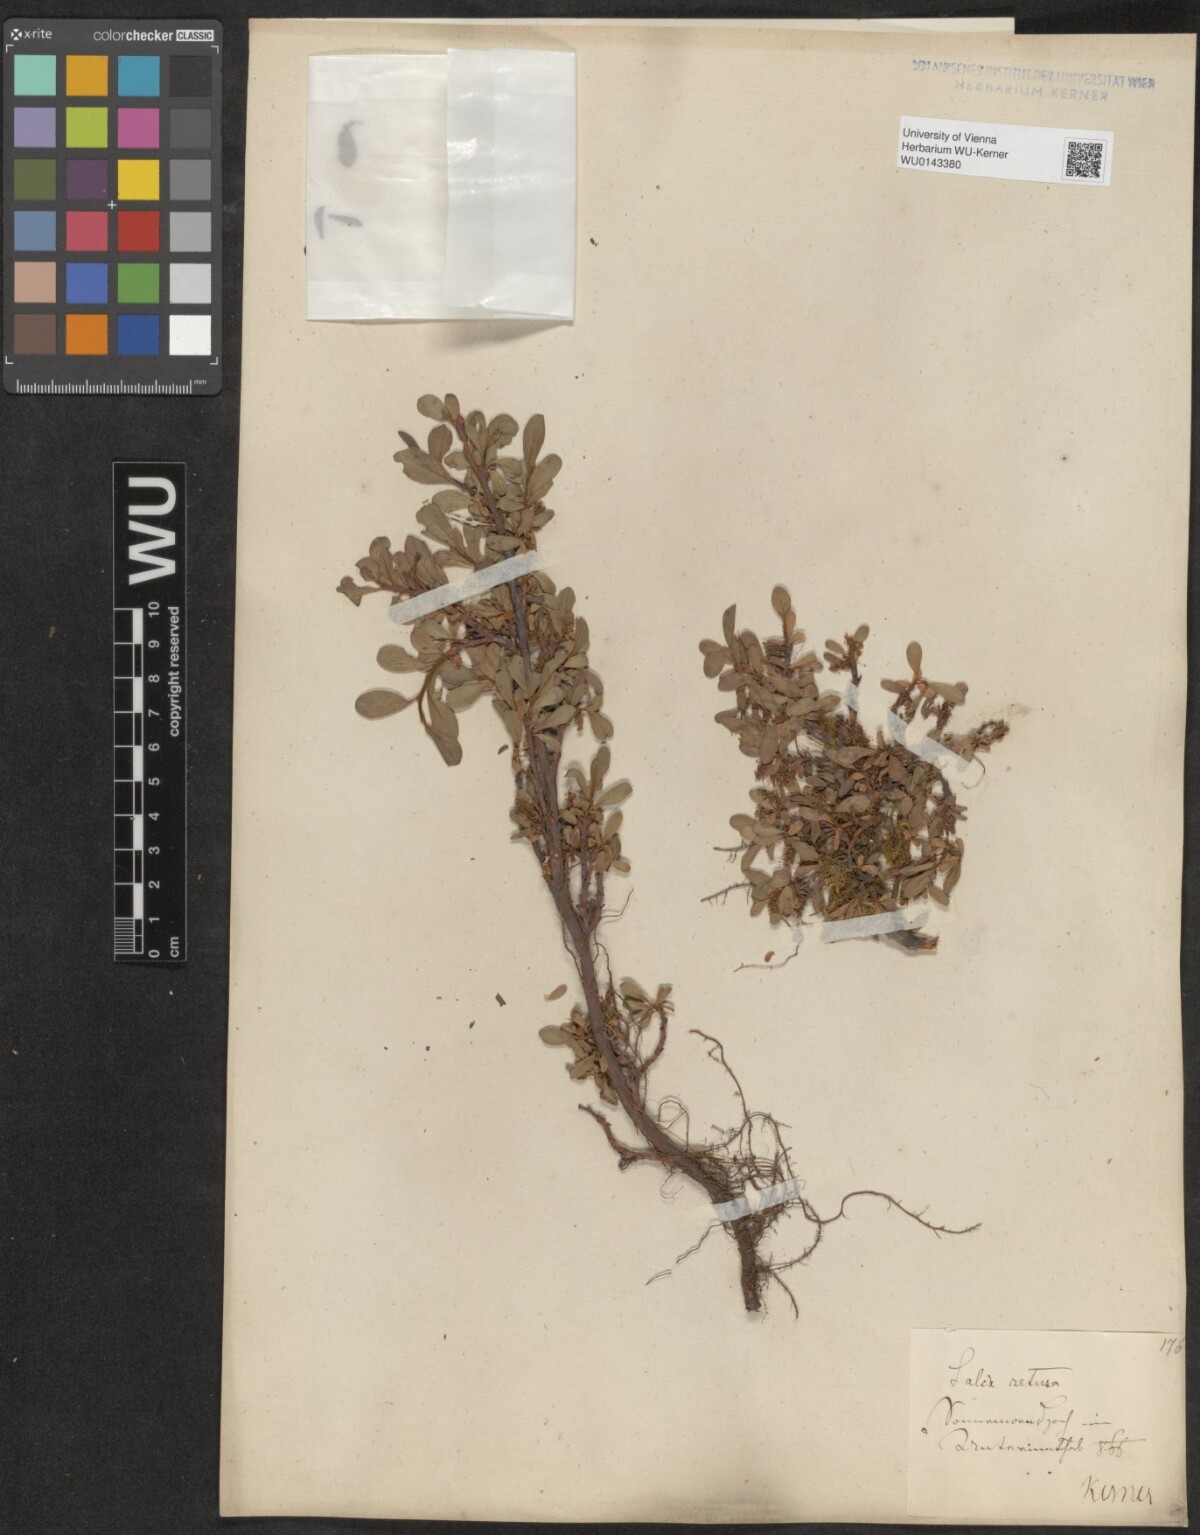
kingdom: Plantae
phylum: Tracheophyta
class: Magnoliopsida
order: Malpighiales
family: Salicaceae
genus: Salix
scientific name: Salix retusa
